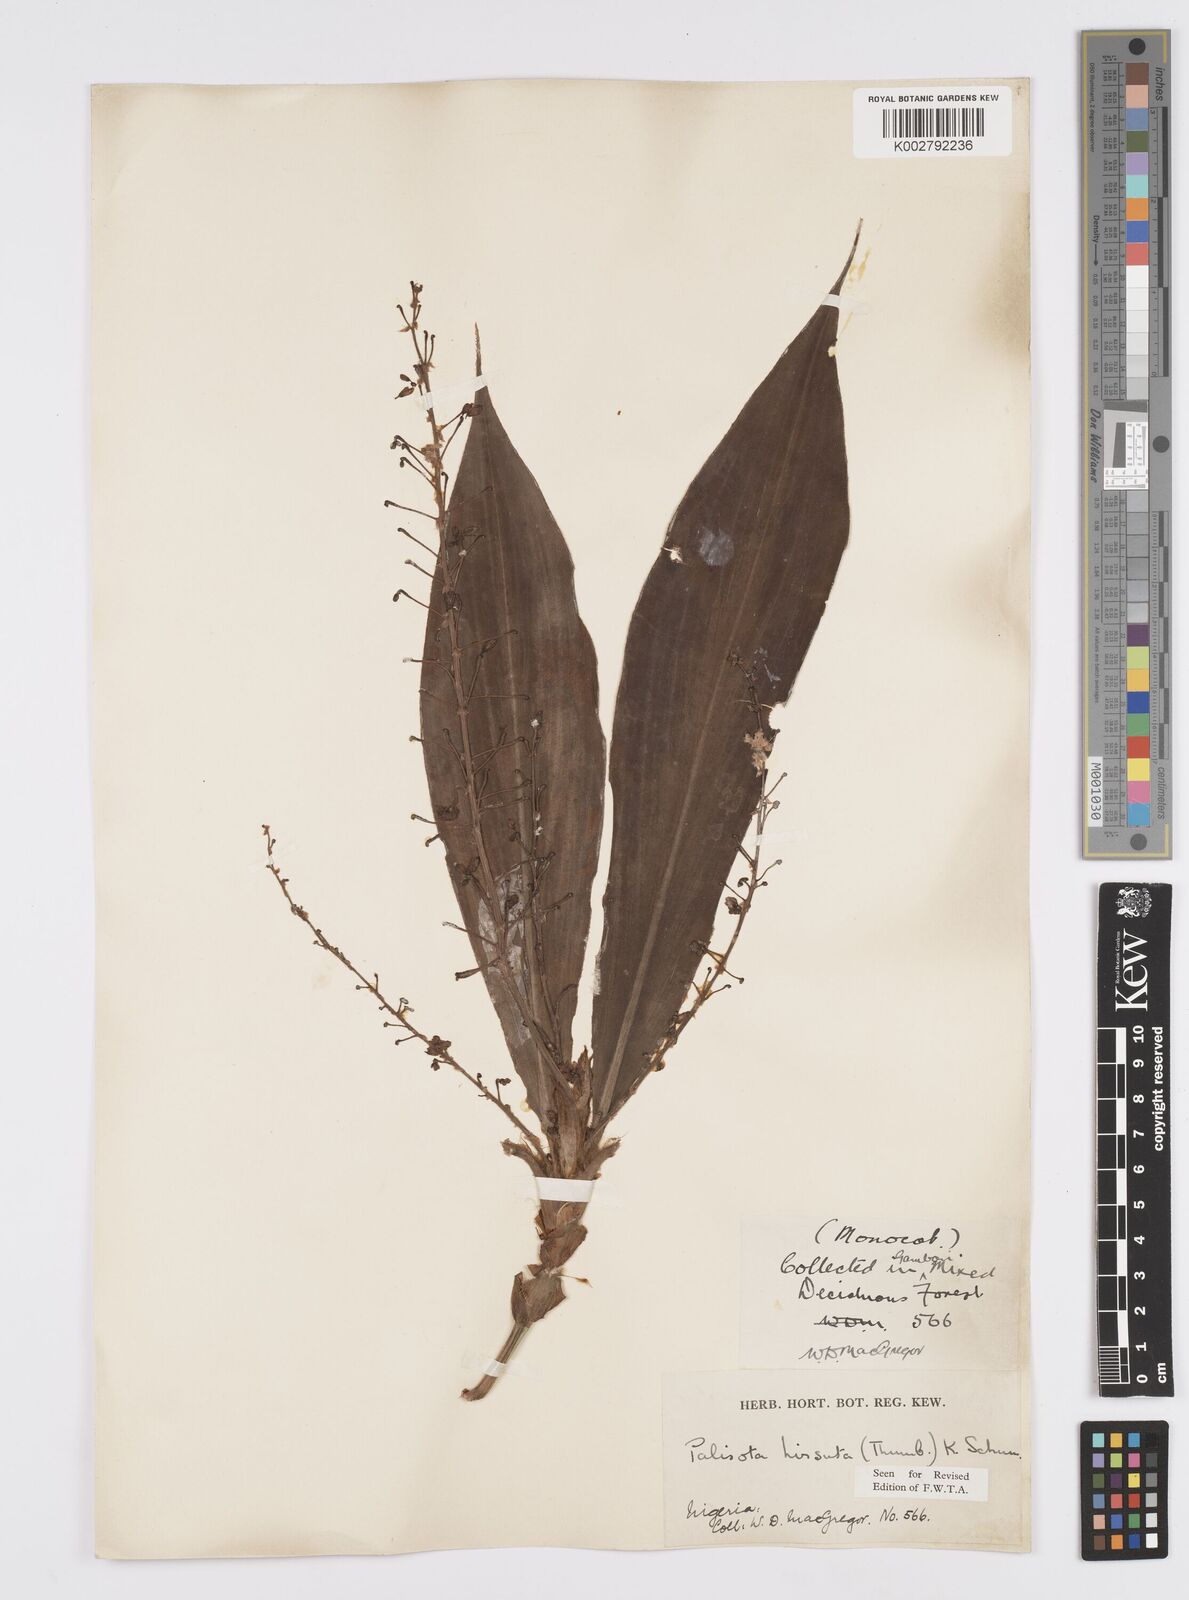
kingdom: Plantae
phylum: Tracheophyta
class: Liliopsida
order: Commelinales
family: Commelinaceae
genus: Palisota
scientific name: Palisota hirsuta
